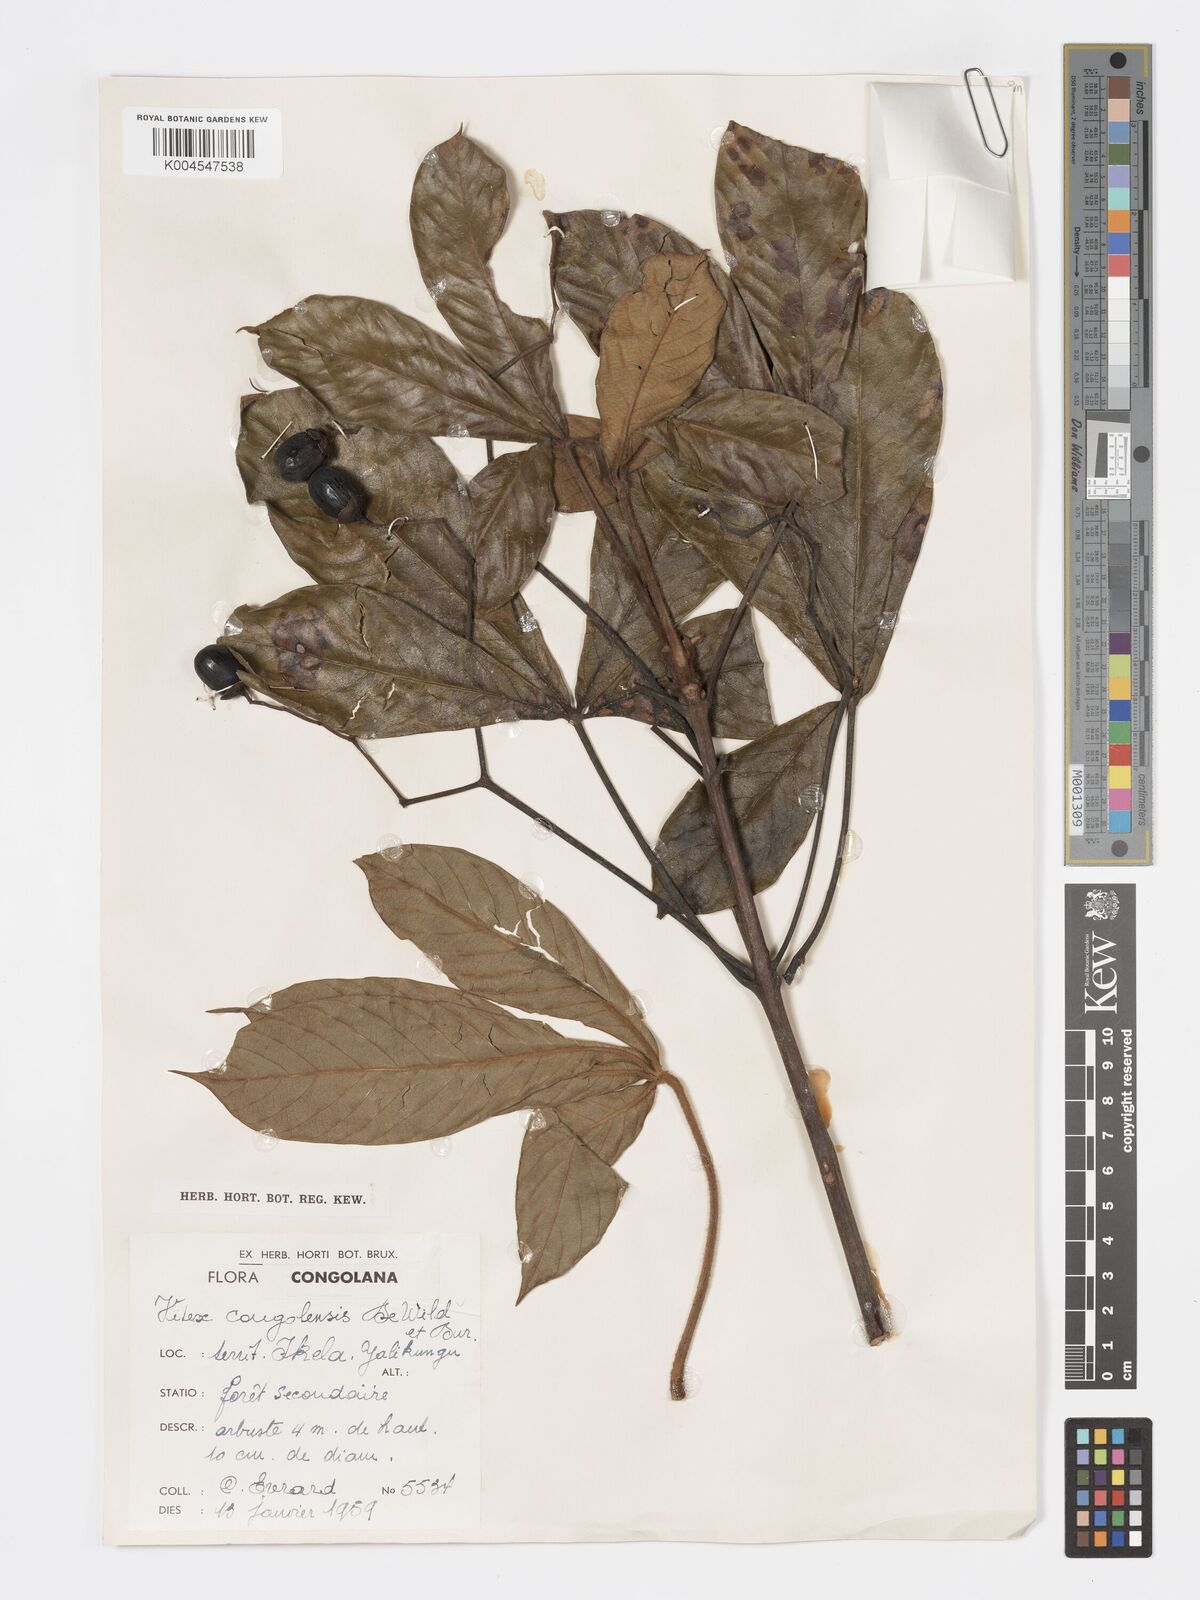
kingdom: Plantae
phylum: Tracheophyta
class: Magnoliopsida
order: Lamiales
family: Lamiaceae
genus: Vitex
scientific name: Vitex congolensis
